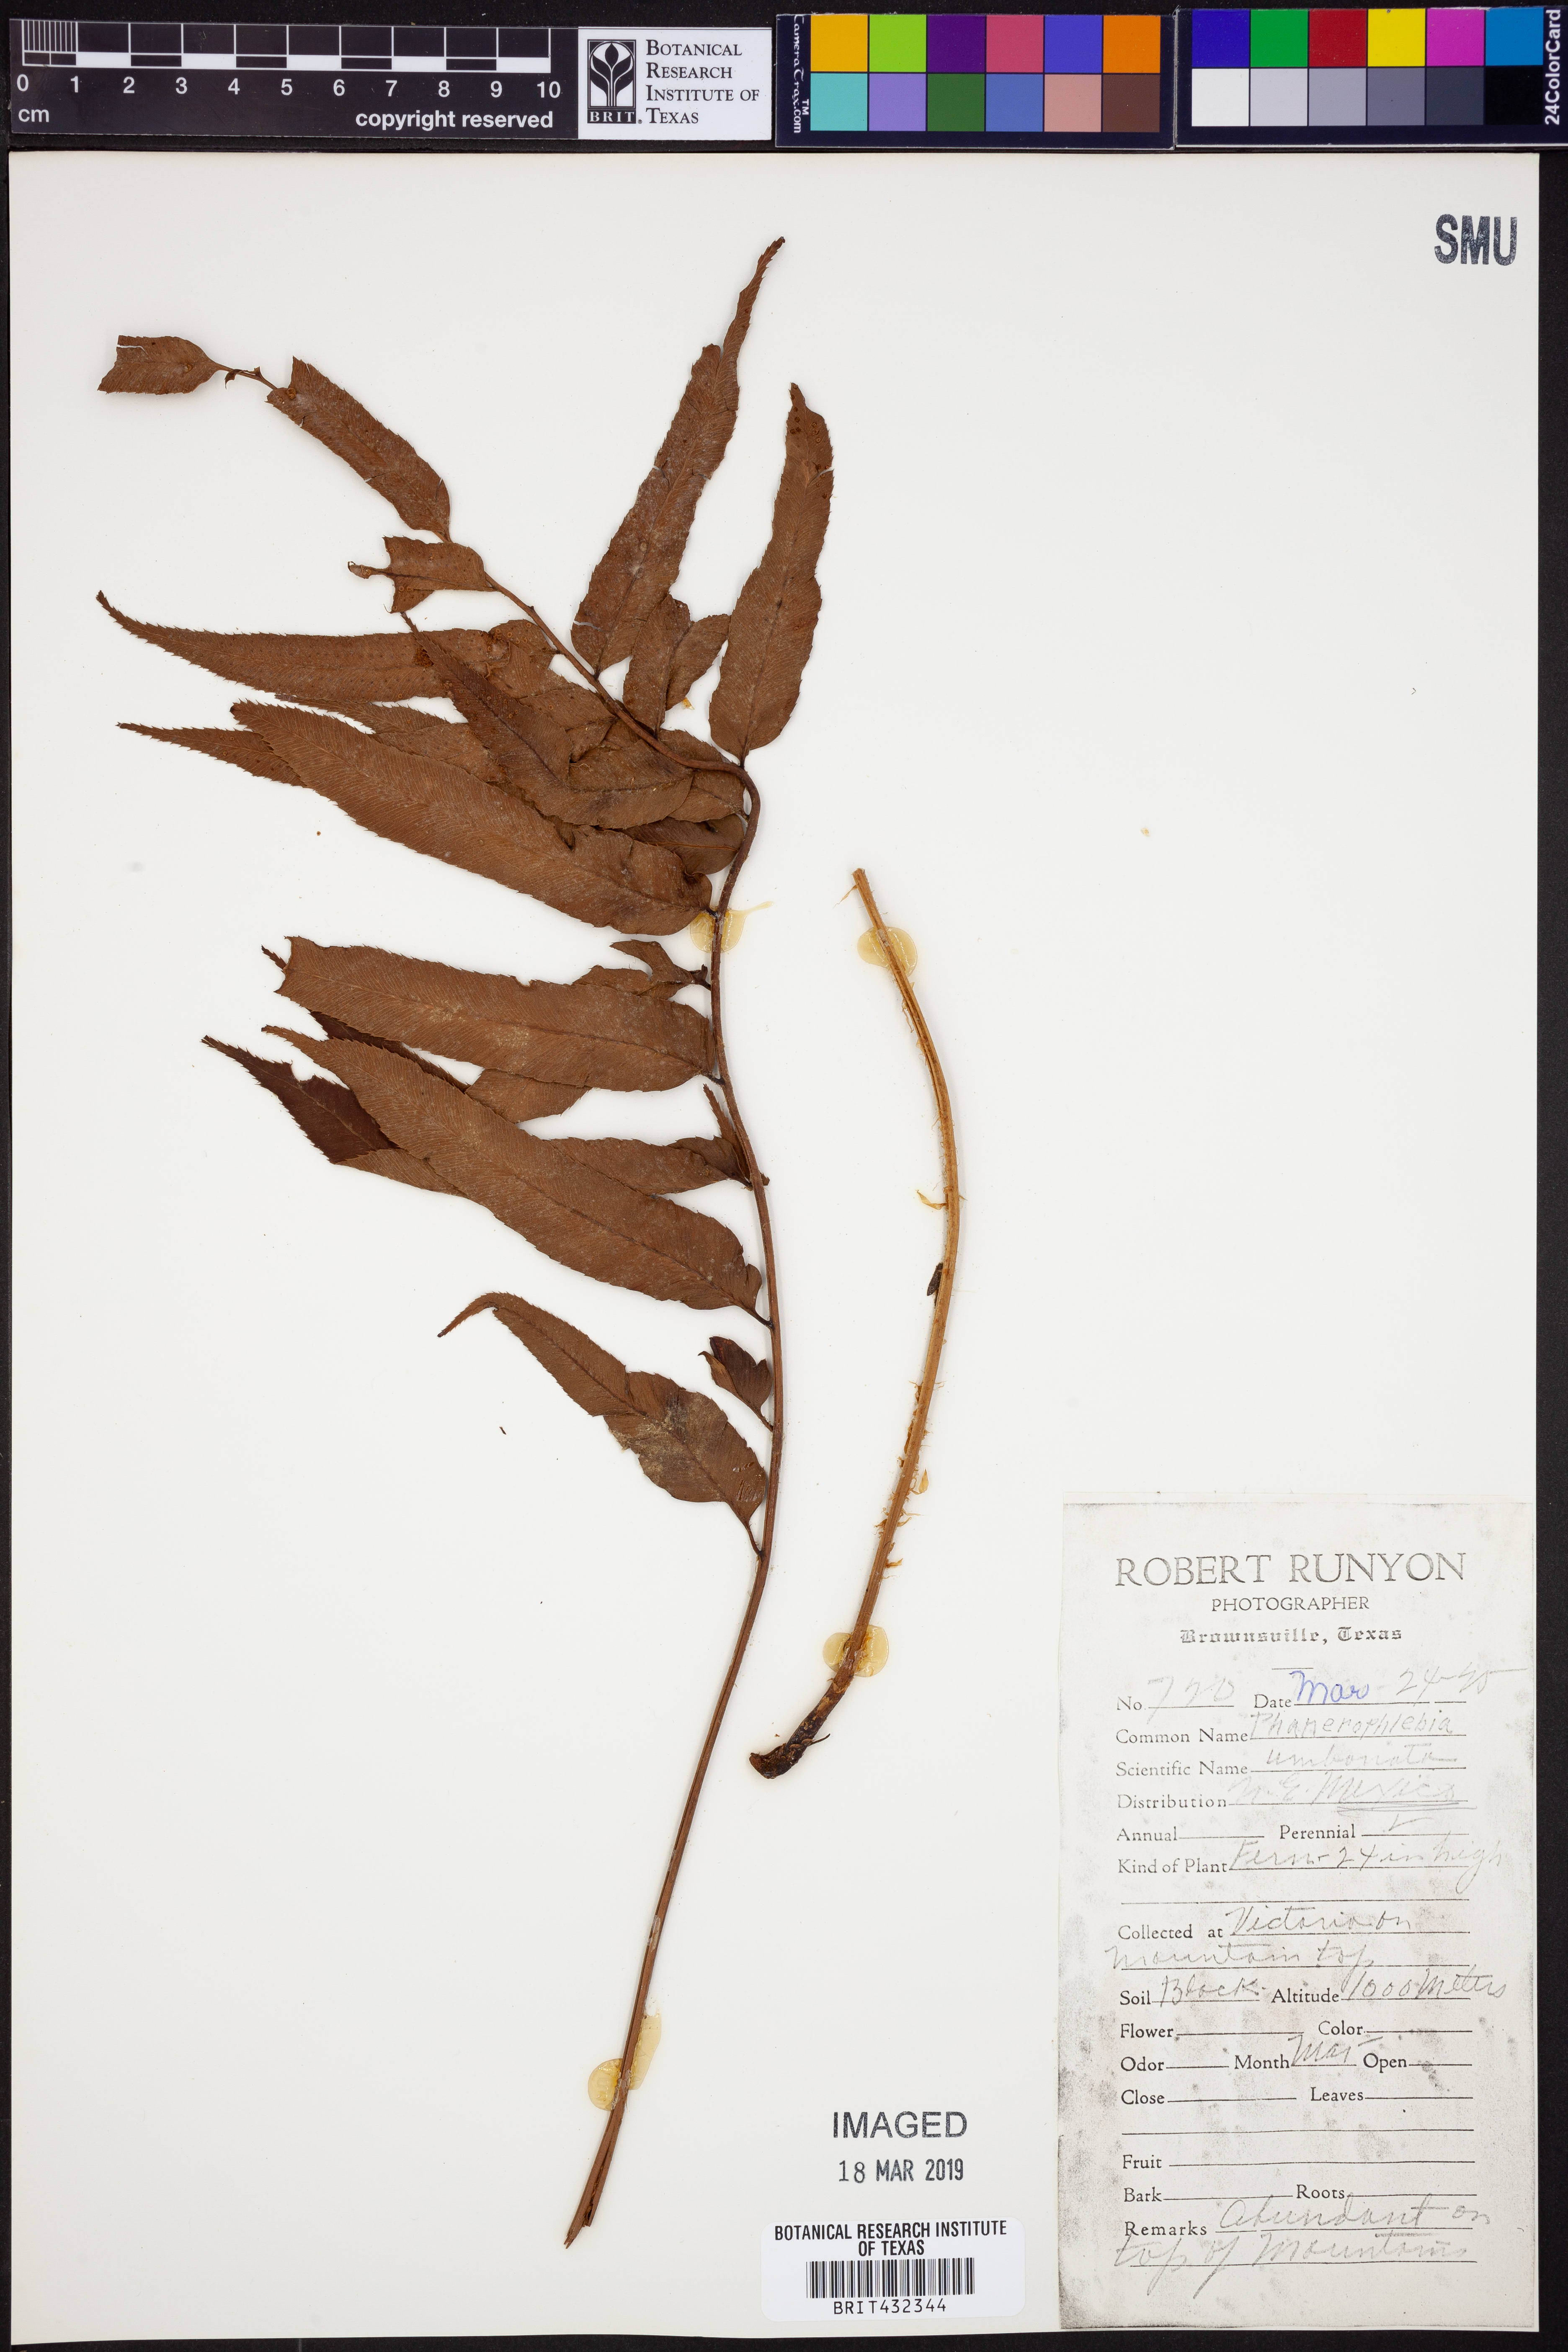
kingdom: Plantae
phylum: Tracheophyta
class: Polypodiopsida
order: Polypodiales
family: Dryopteridaceae
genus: Phanerophlebia
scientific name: Phanerophlebia umbonata
